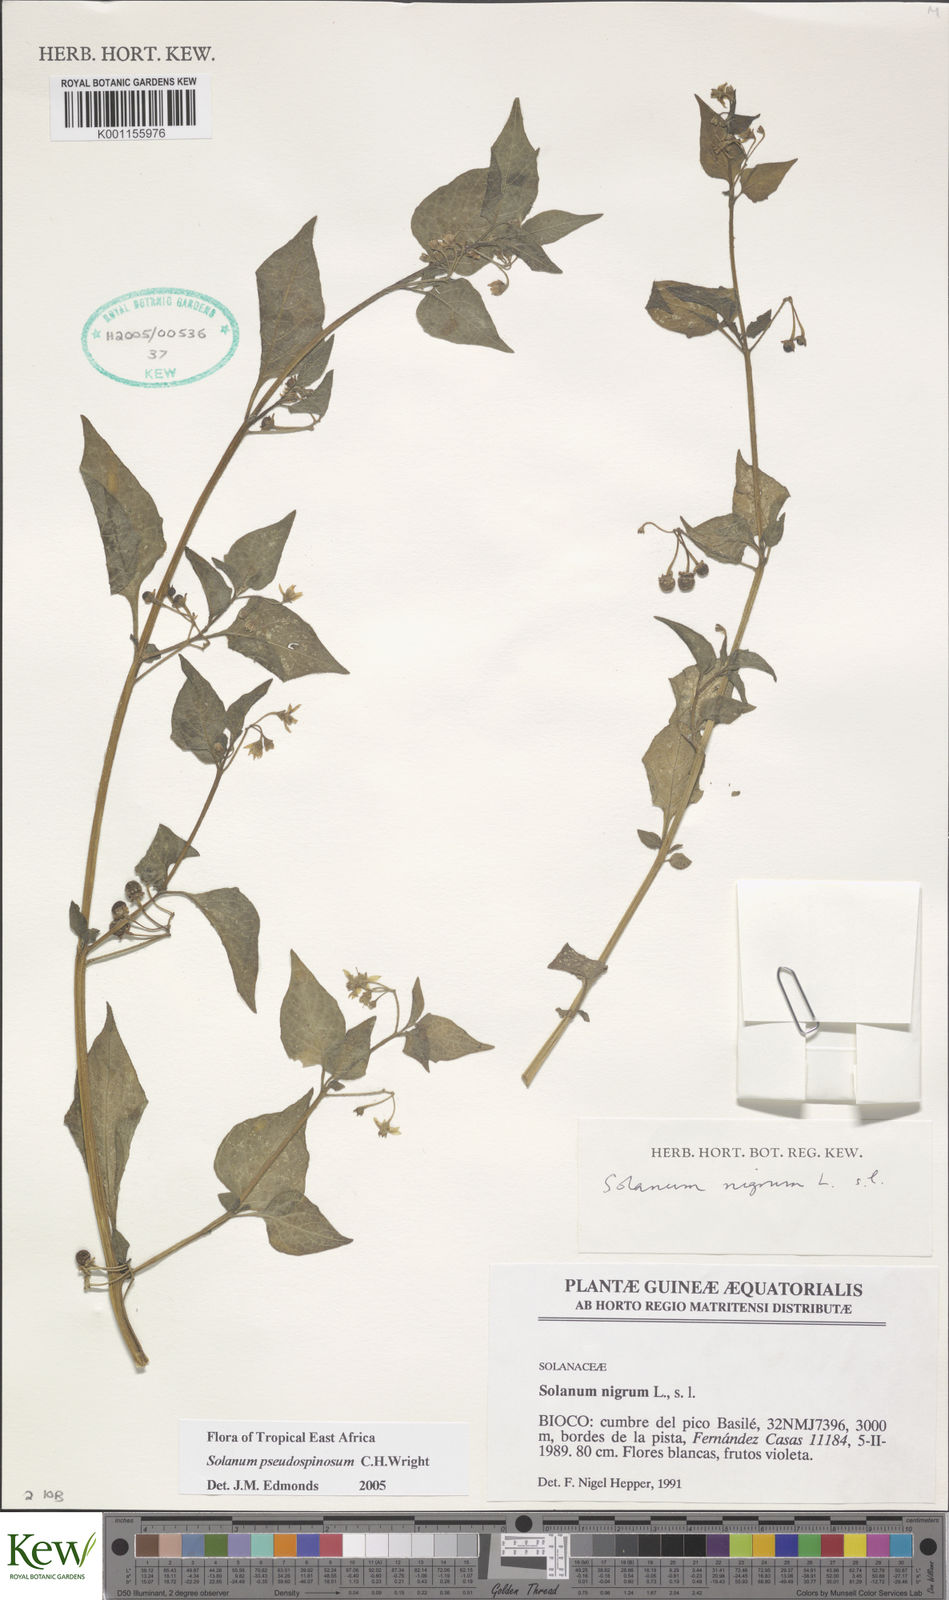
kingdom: Plantae
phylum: Tracheophyta
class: Magnoliopsida
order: Solanales
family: Solanaceae
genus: Solanum
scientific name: Solanum pseudospinosum
